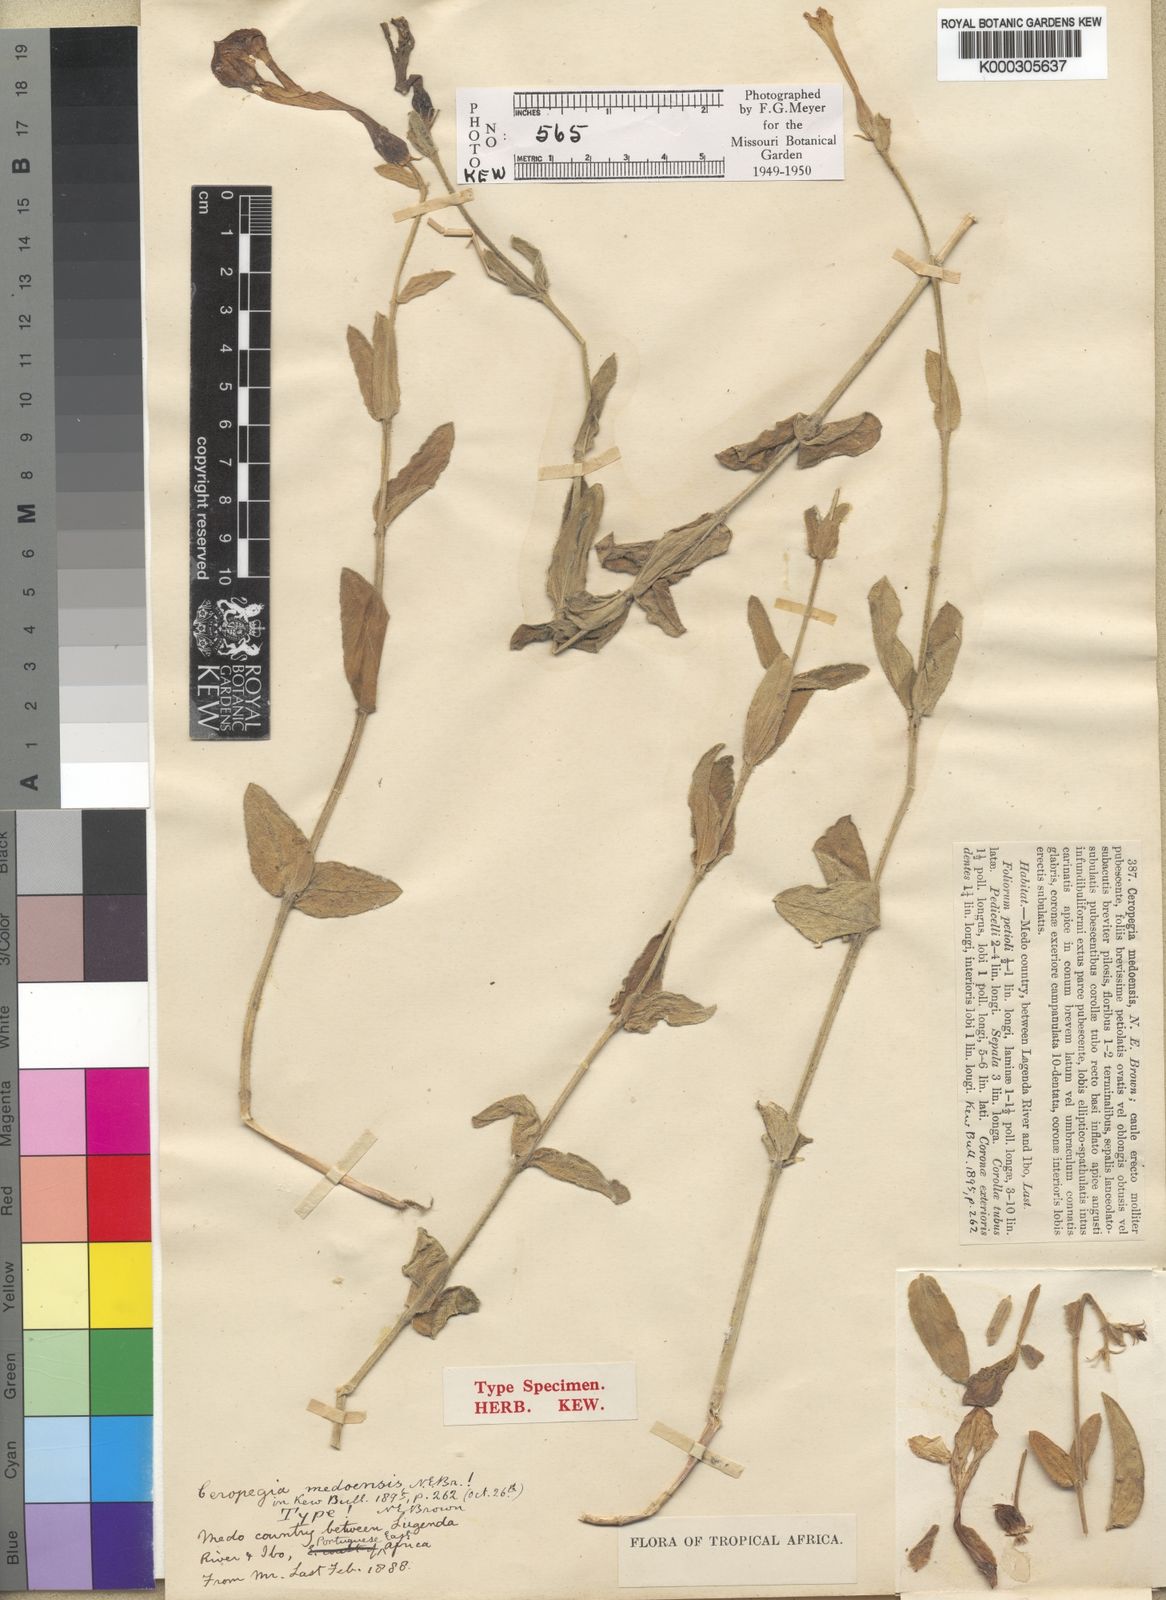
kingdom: Plantae
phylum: Tracheophyta
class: Magnoliopsida
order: Gentianales
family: Apocynaceae
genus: Ceropegia
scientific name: Ceropegia filipendula
